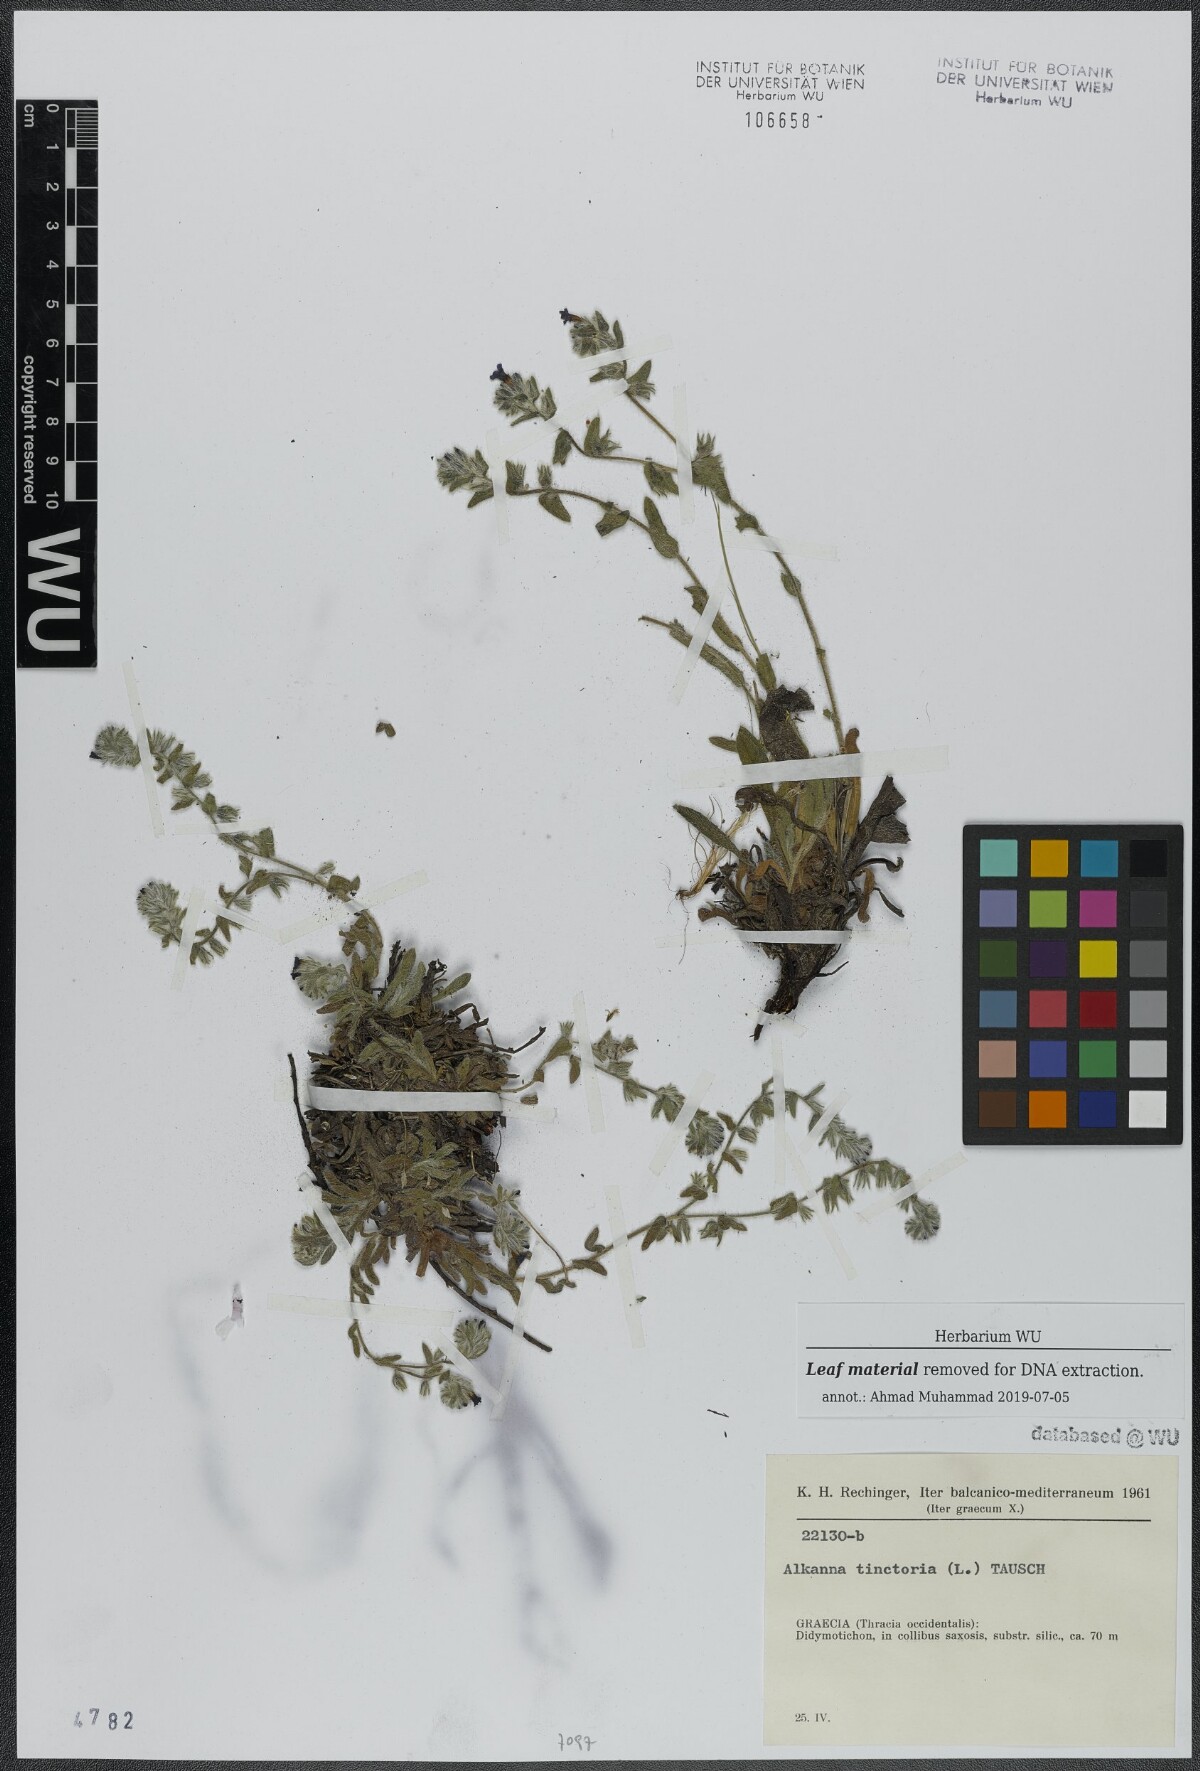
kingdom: Plantae
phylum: Tracheophyta
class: Magnoliopsida
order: Boraginales
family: Boraginaceae
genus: Alkanna
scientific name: Alkanna tinctoria
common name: Dyer's-alkanet
